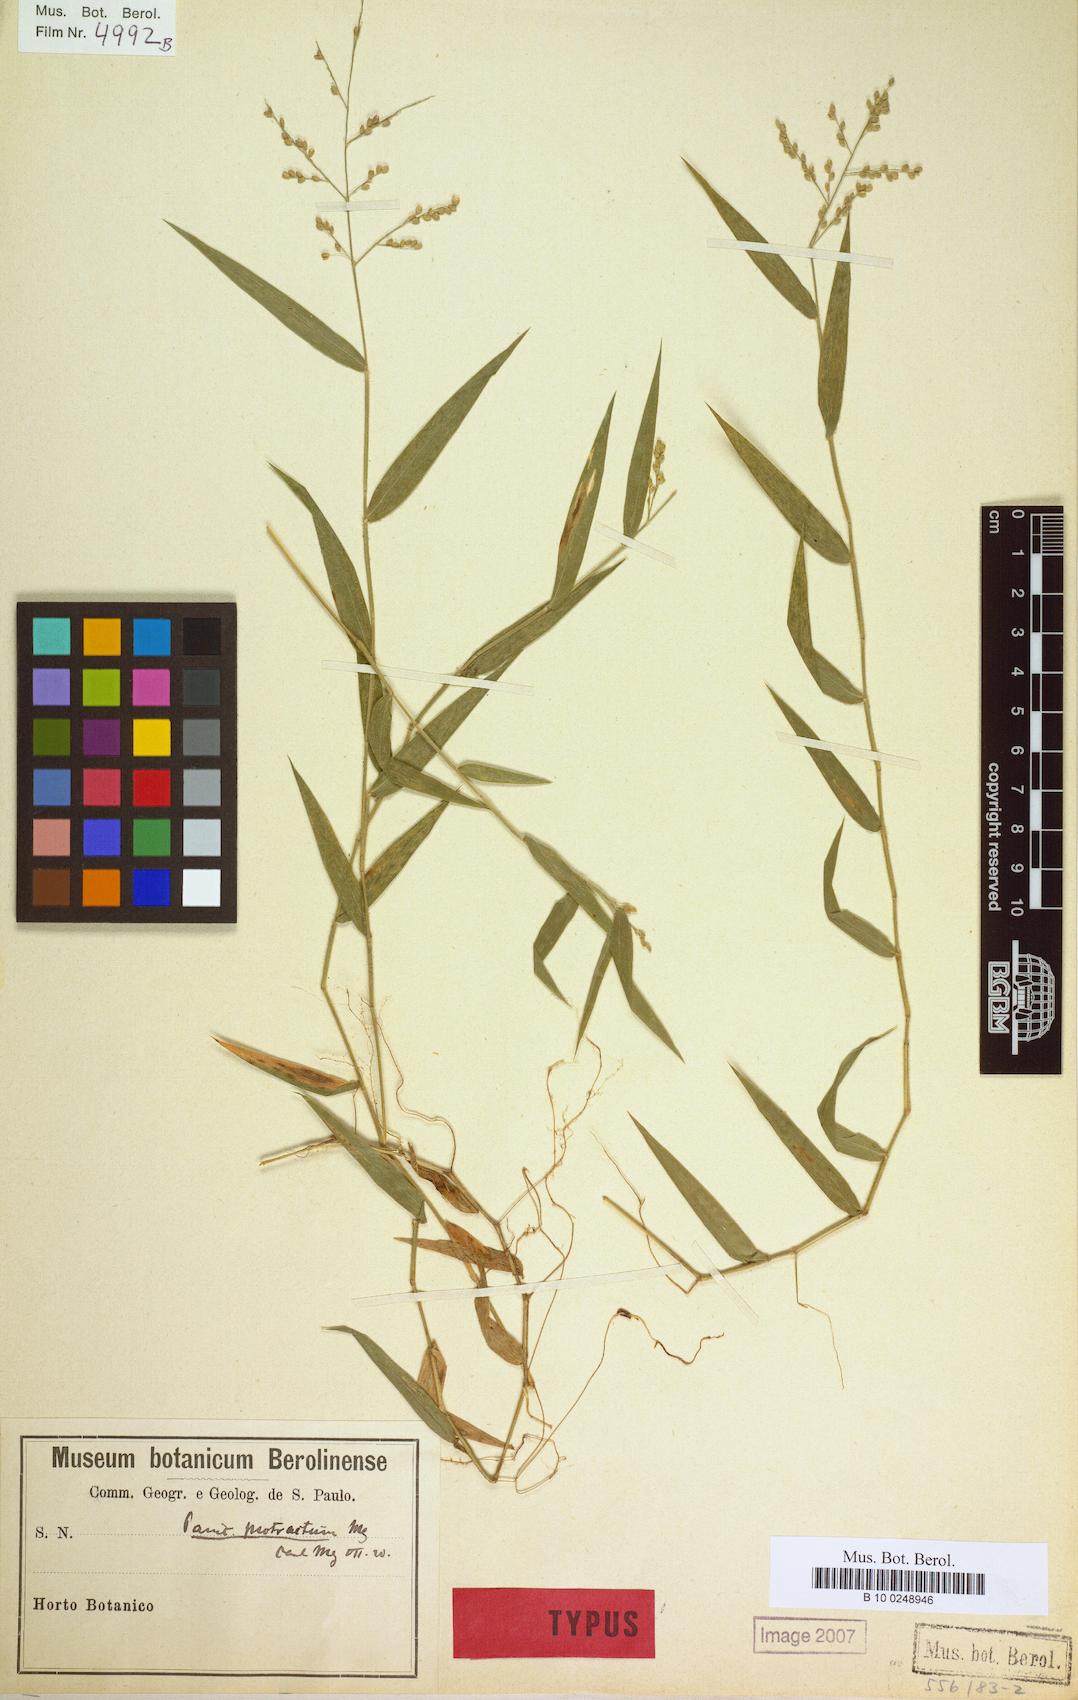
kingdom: Plantae
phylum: Tracheophyta
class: Liliopsida
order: Poales
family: Poaceae
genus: Parodiophyllochloa
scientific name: Parodiophyllochloa pantricha
